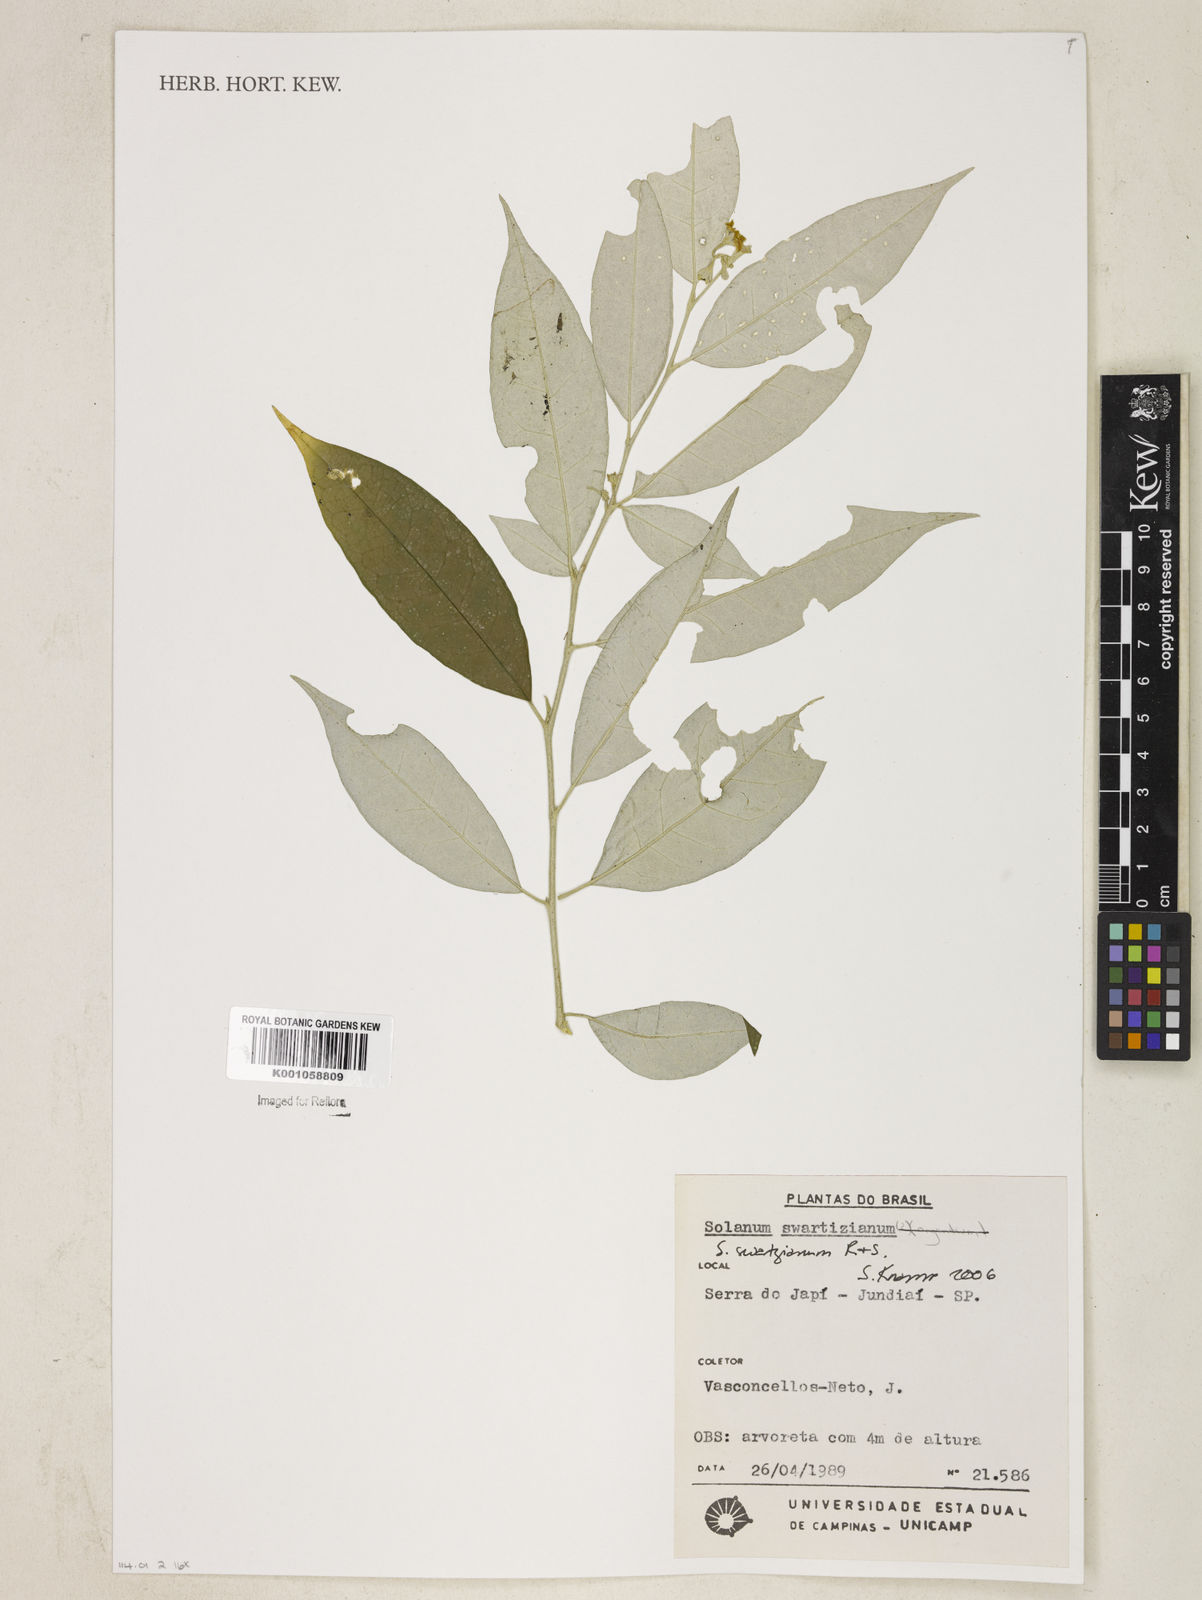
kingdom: Plantae
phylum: Tracheophyta
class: Magnoliopsida
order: Solanales
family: Solanaceae
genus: Solanum
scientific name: Solanum swartzianum
